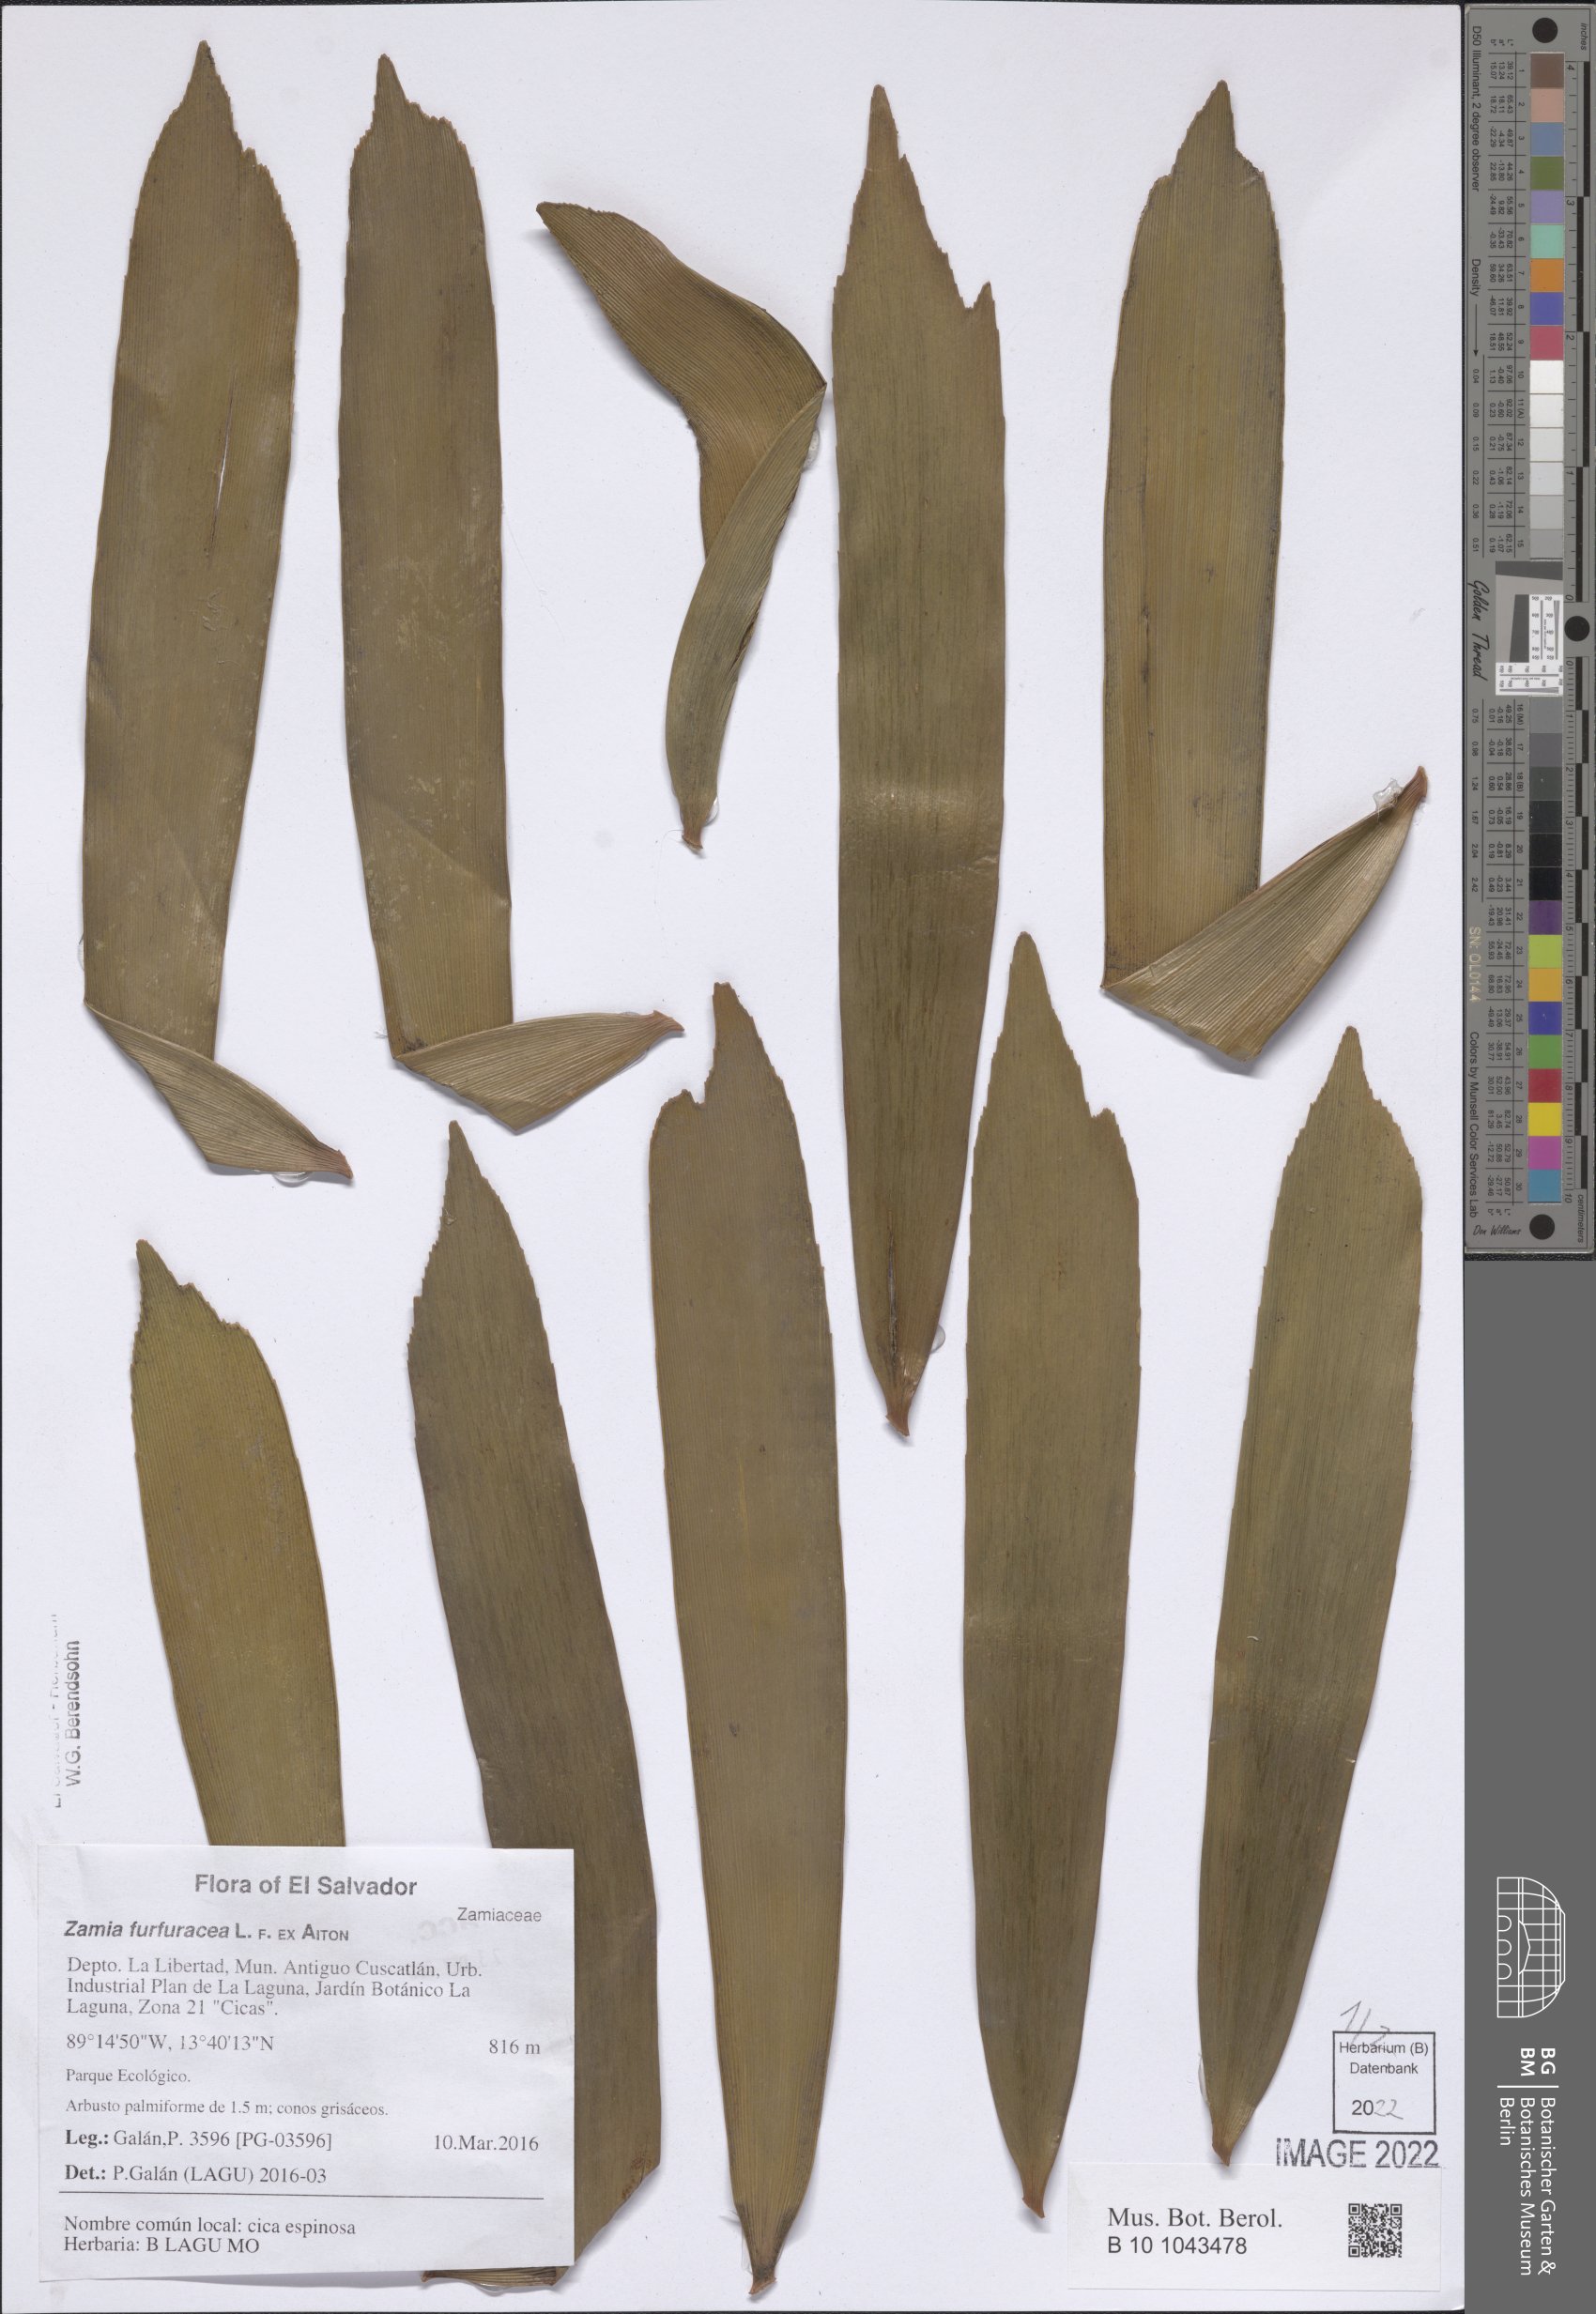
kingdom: Plantae
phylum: Tracheophyta
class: Cycadopsida
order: Cycadales
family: Zamiaceae
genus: Zamia
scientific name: Zamia furfuracea
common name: Cardboard palm
